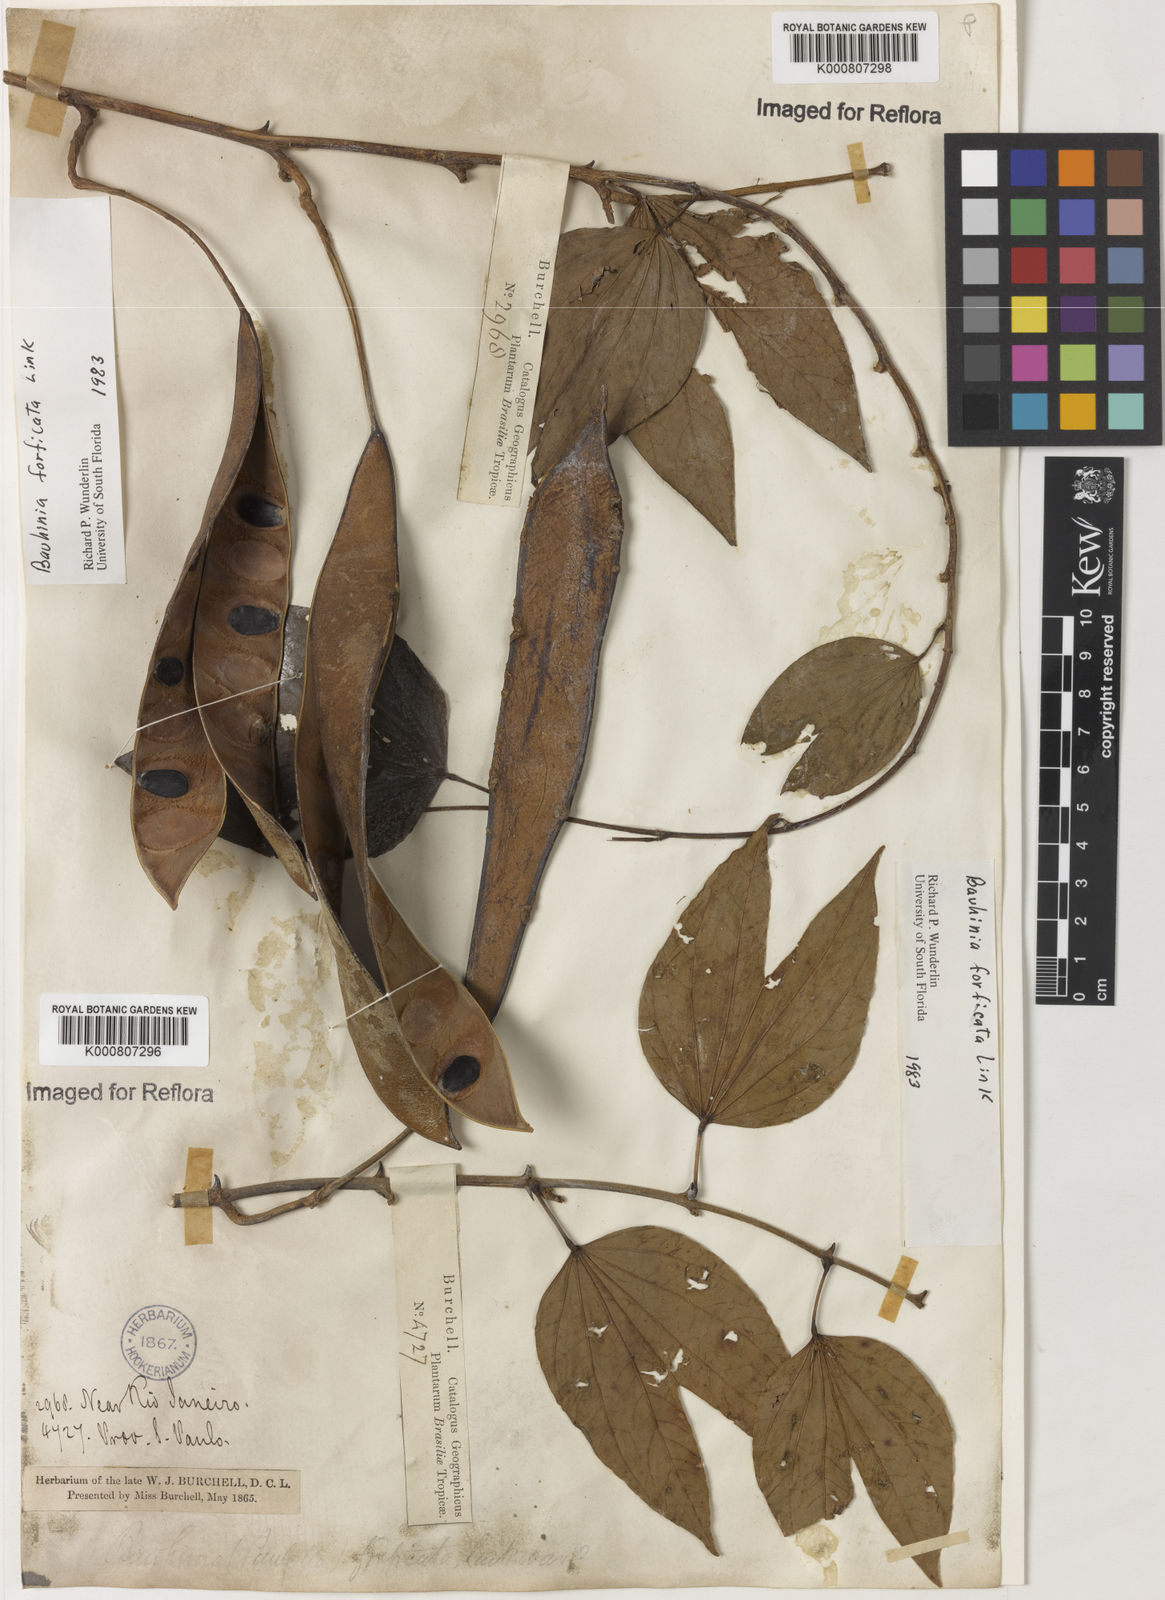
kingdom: Plantae
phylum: Tracheophyta
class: Magnoliopsida
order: Fabales
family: Fabaceae
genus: Bauhinia
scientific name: Bauhinia forficata
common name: Orchid tree
